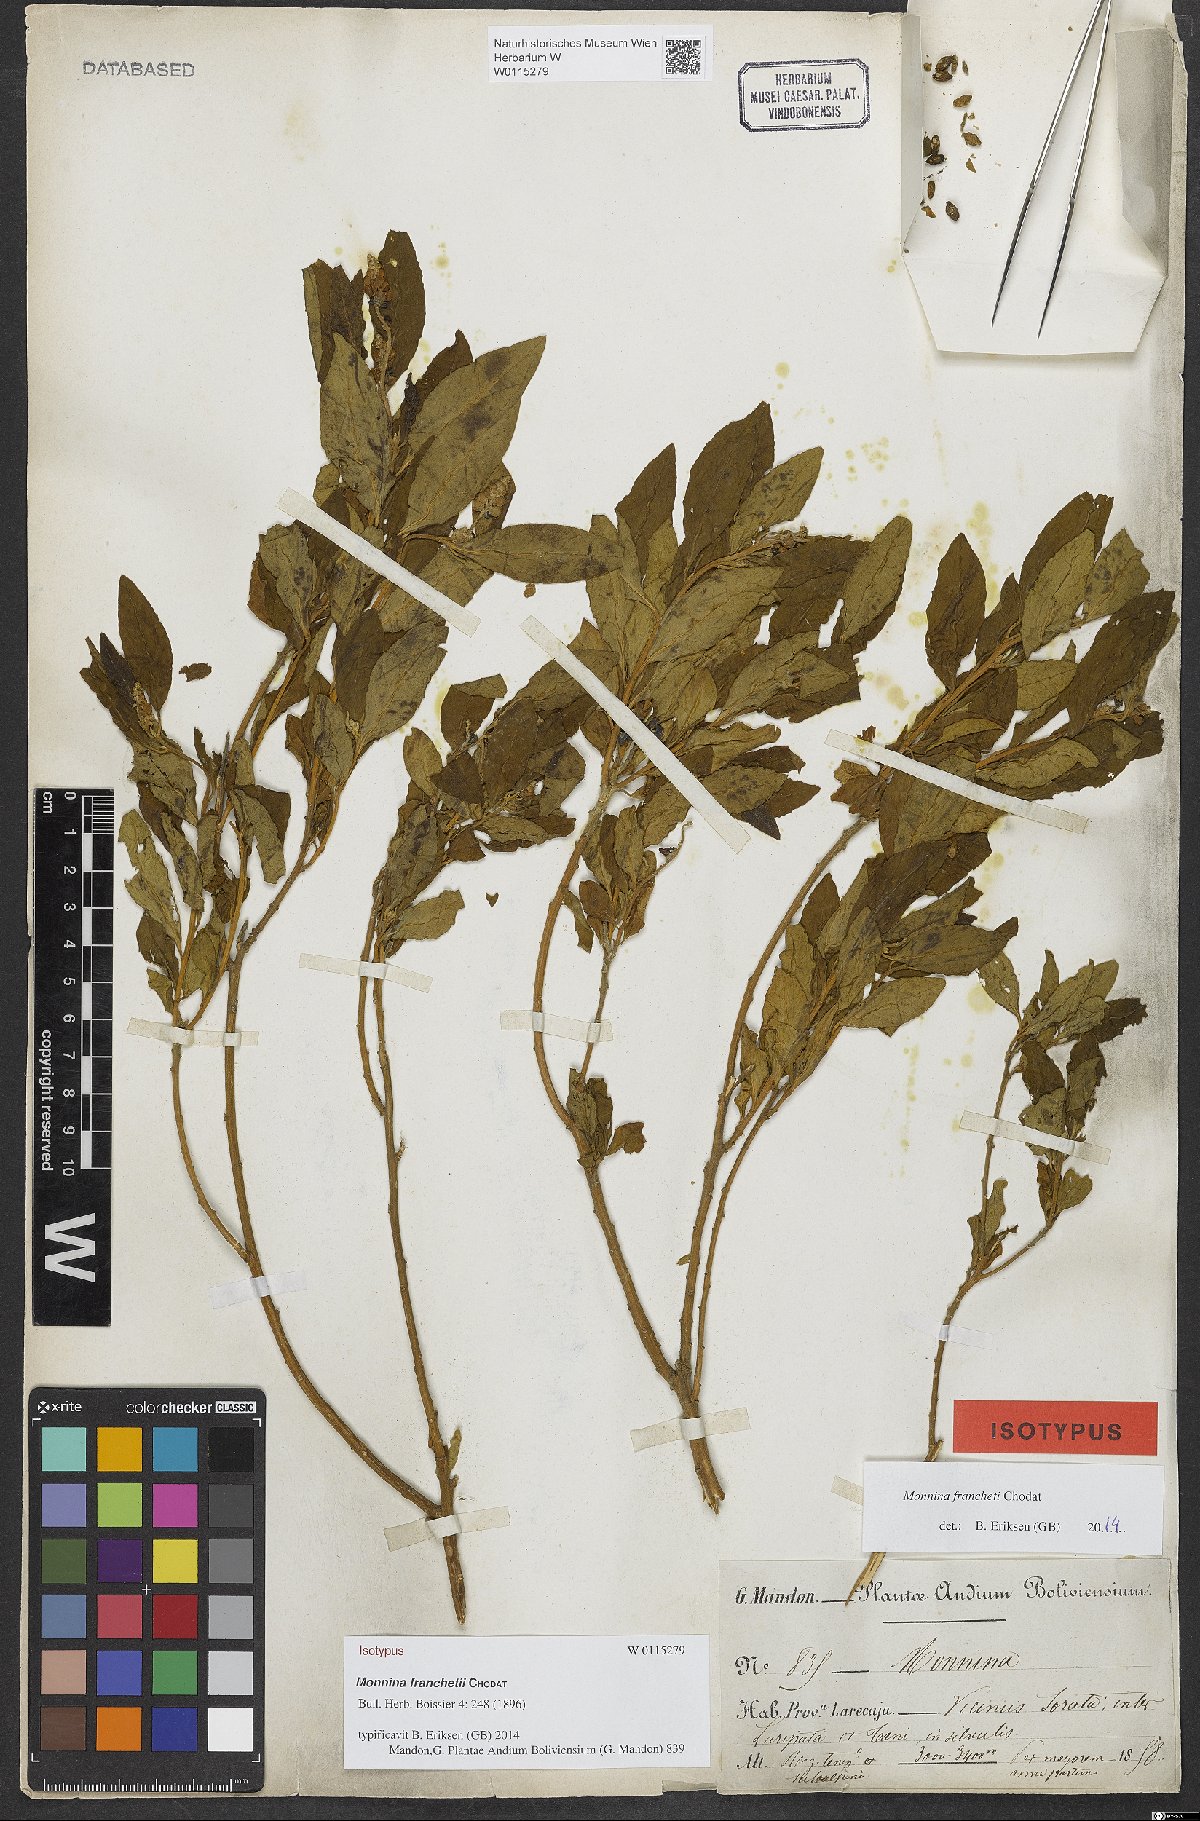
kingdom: Plantae
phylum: Tracheophyta
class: Magnoliopsida
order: Fabales
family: Polygalaceae
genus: Monnina
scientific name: Monnina franchetii
